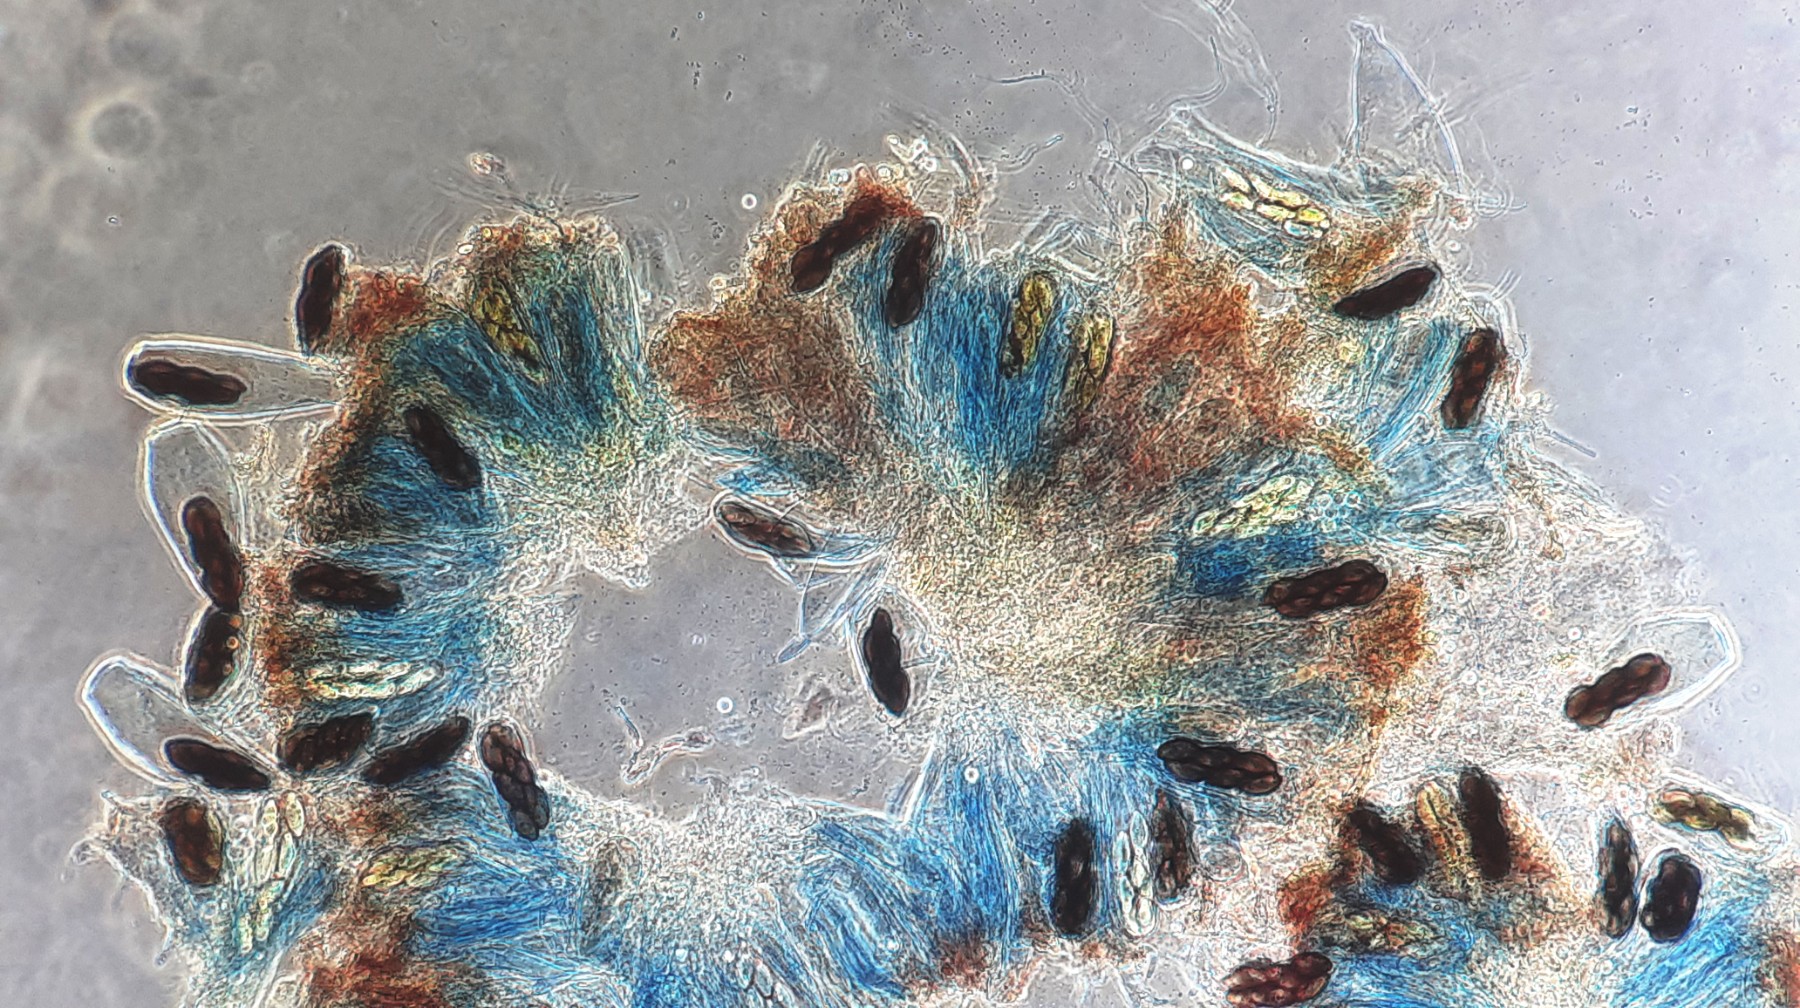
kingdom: Fungi
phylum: Ascomycota
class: Pezizomycetes
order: Pezizales
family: Ascobolaceae
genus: Saccobolus
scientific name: Saccobolus versicolor
